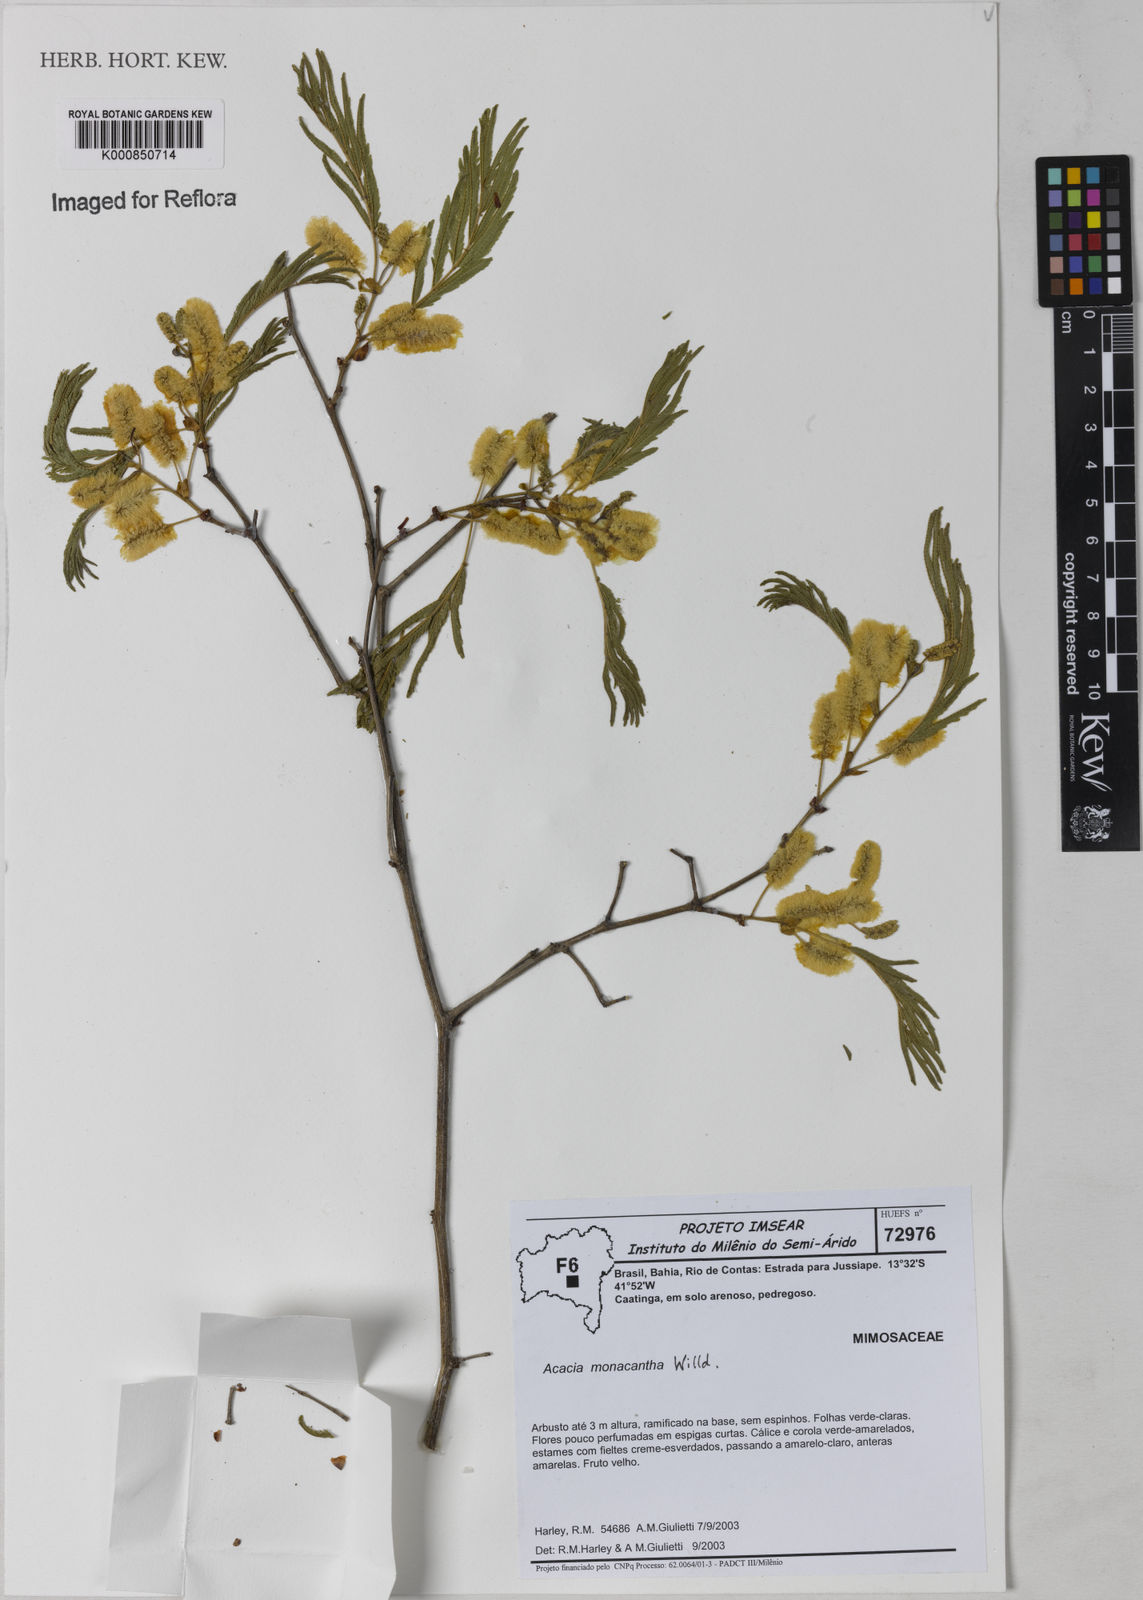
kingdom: Plantae
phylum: Tracheophyta
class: Magnoliopsida
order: Fabales
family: Fabaceae
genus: Senegalia
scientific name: Senegalia monacantha
